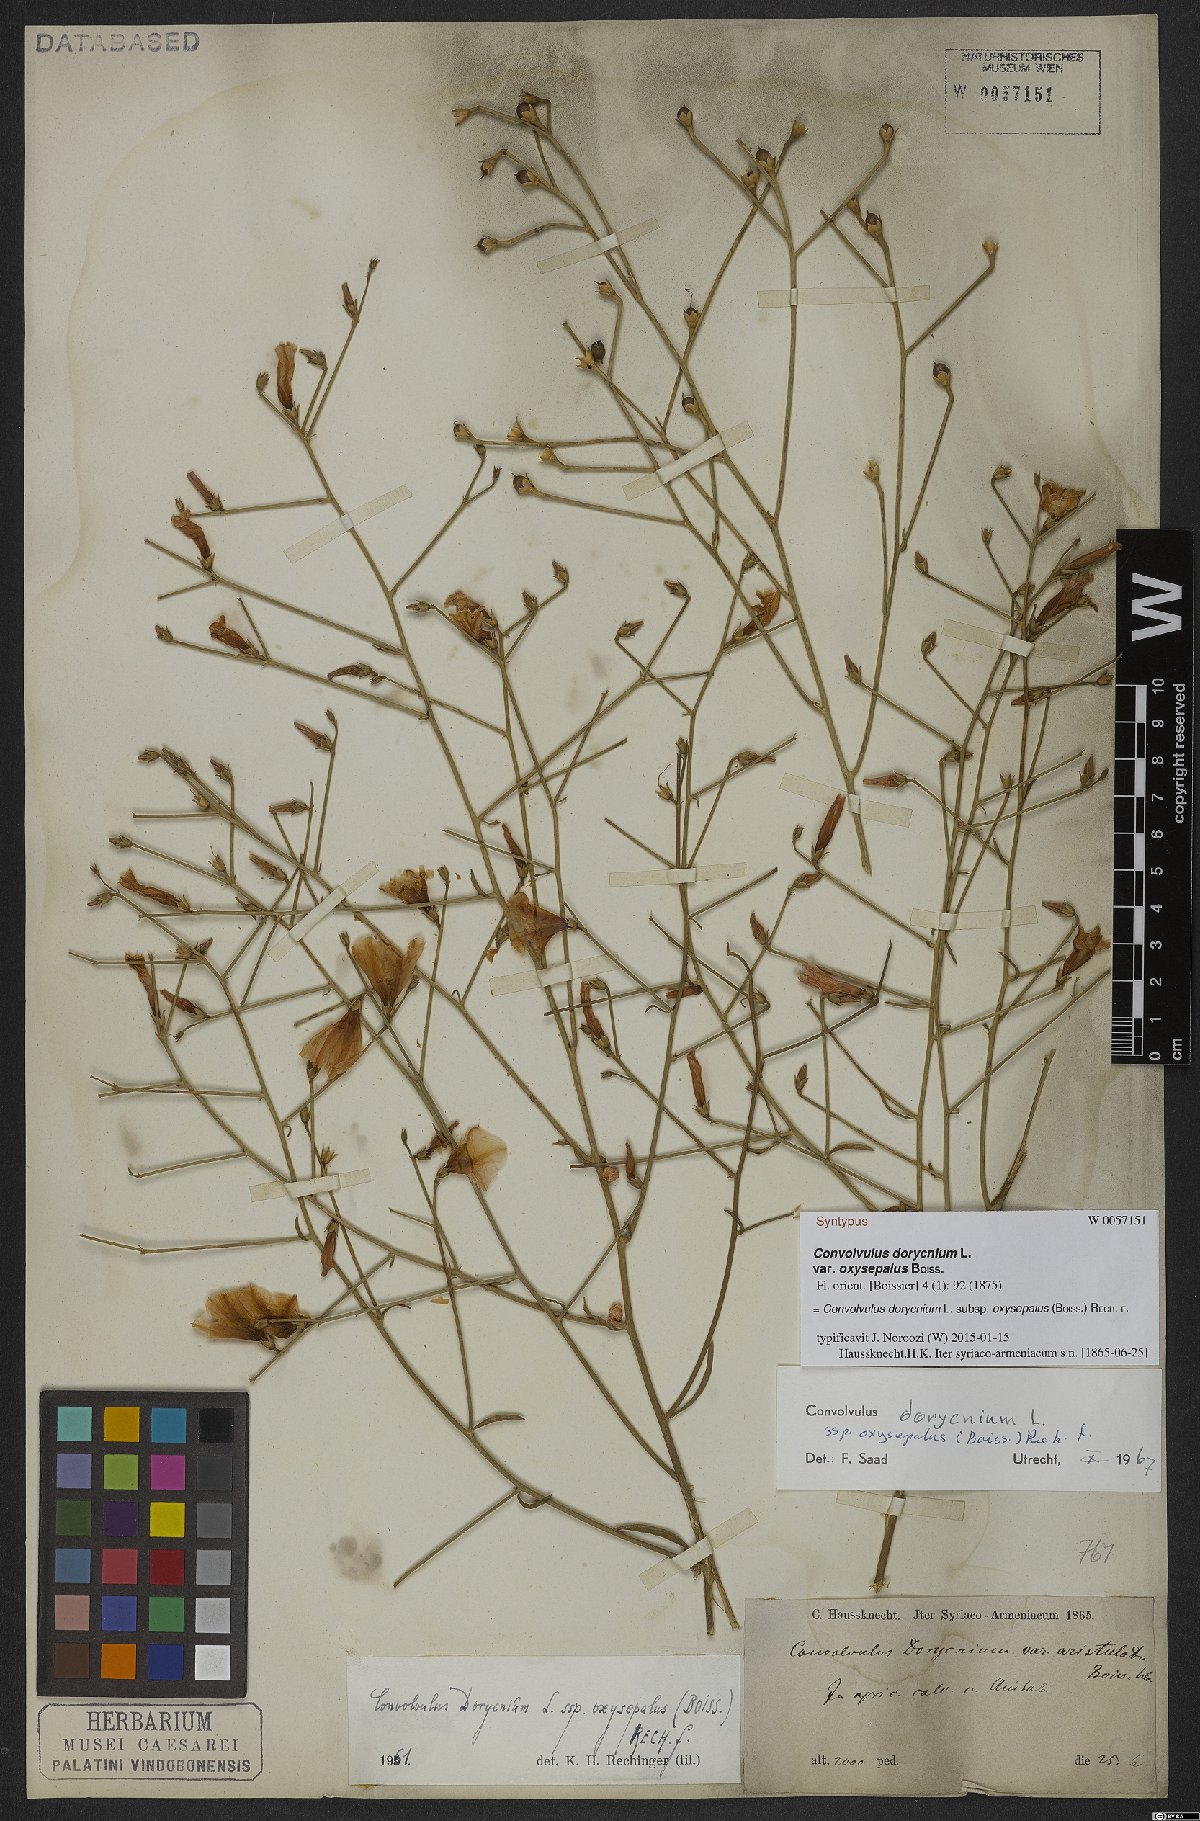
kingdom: Plantae
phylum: Tracheophyta
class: Magnoliopsida
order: Solanales
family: Convolvulaceae
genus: Convolvulus
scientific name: Convolvulus dorycnium
